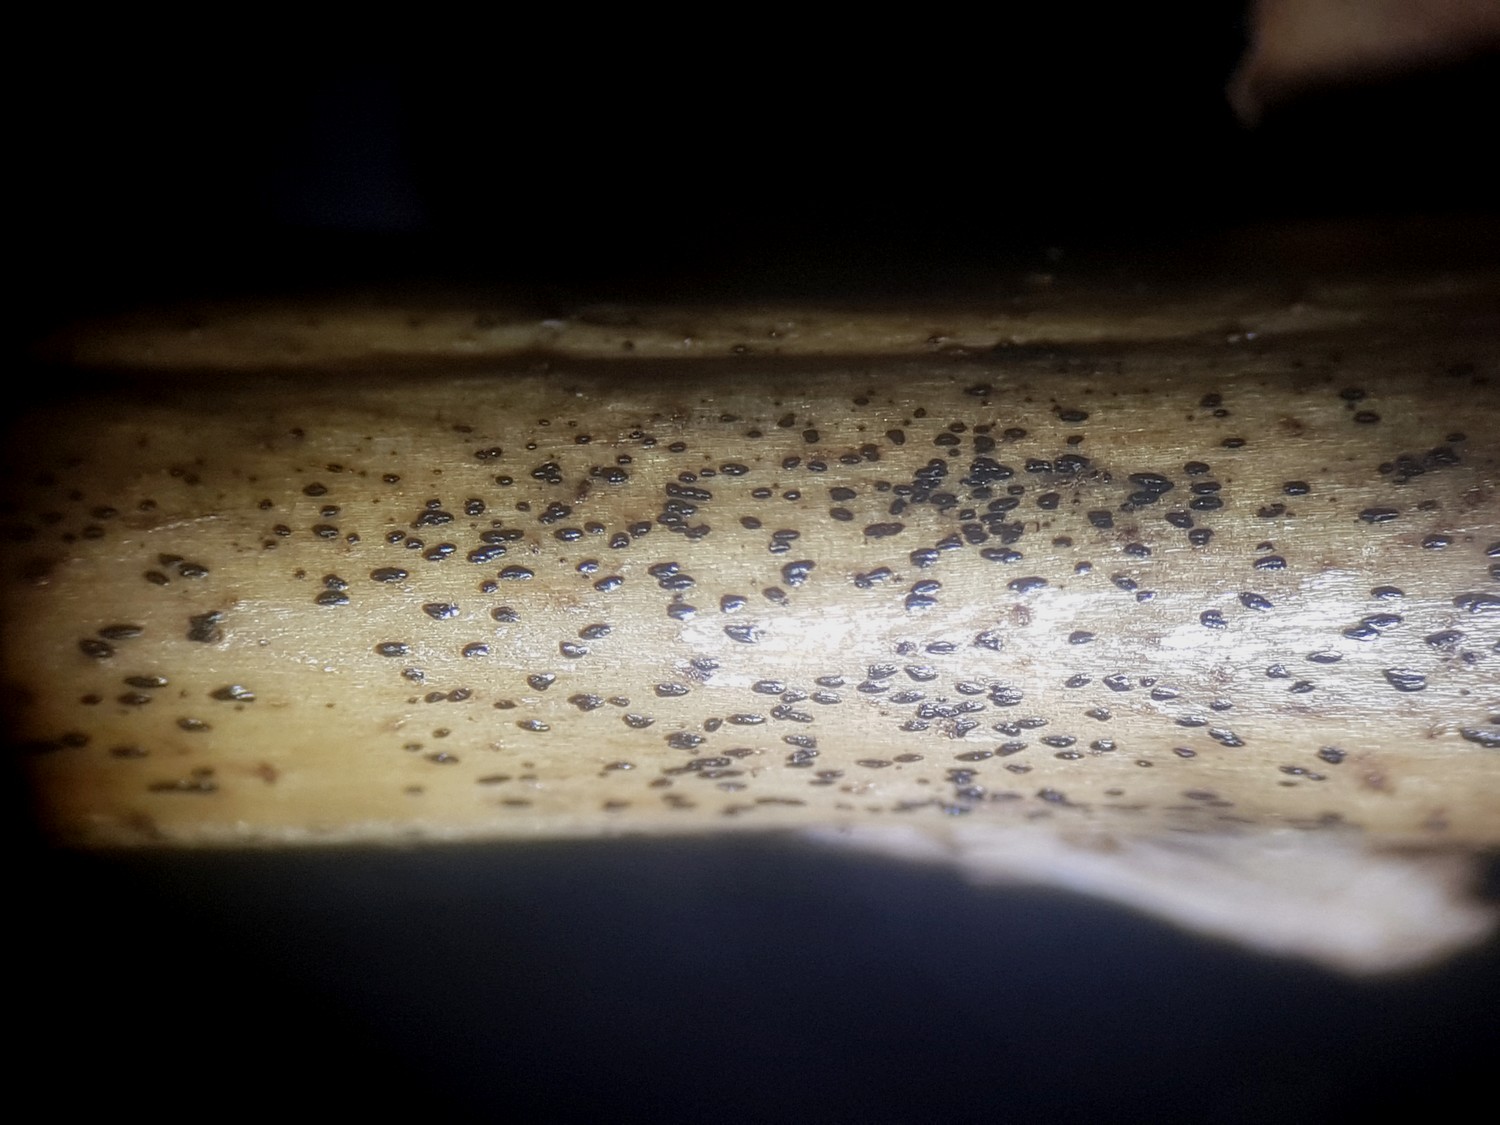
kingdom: Fungi
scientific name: Fungi
